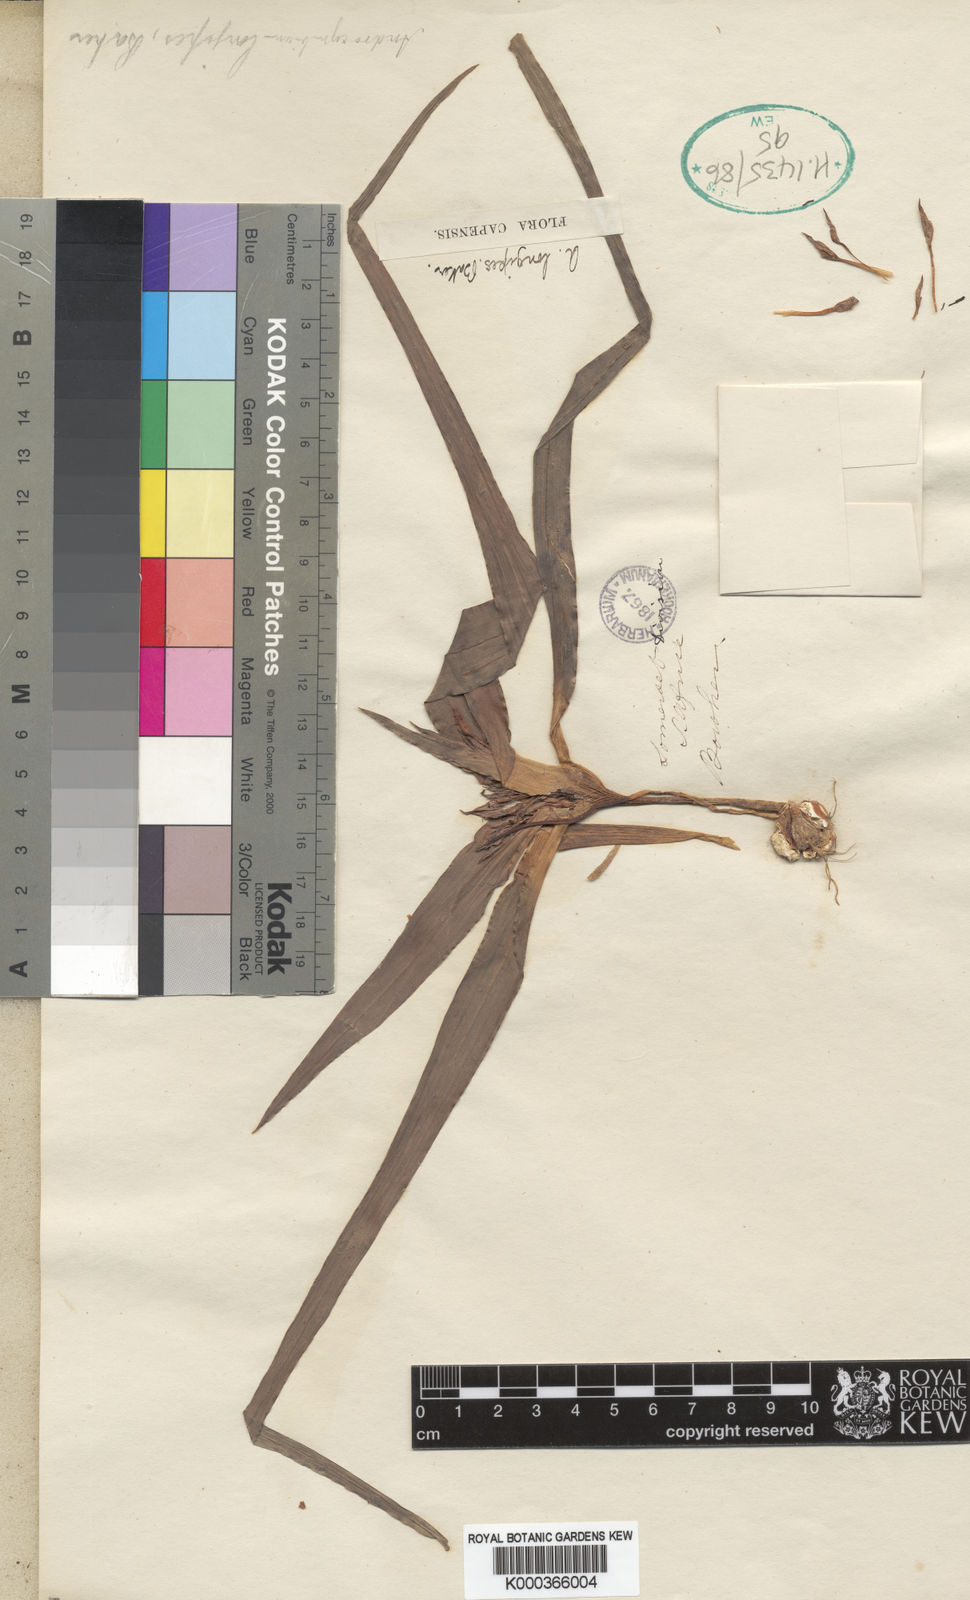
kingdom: Plantae
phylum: Tracheophyta
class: Liliopsida
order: Liliales
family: Colchicaceae
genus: Colchicum
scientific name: Colchicum longipes
